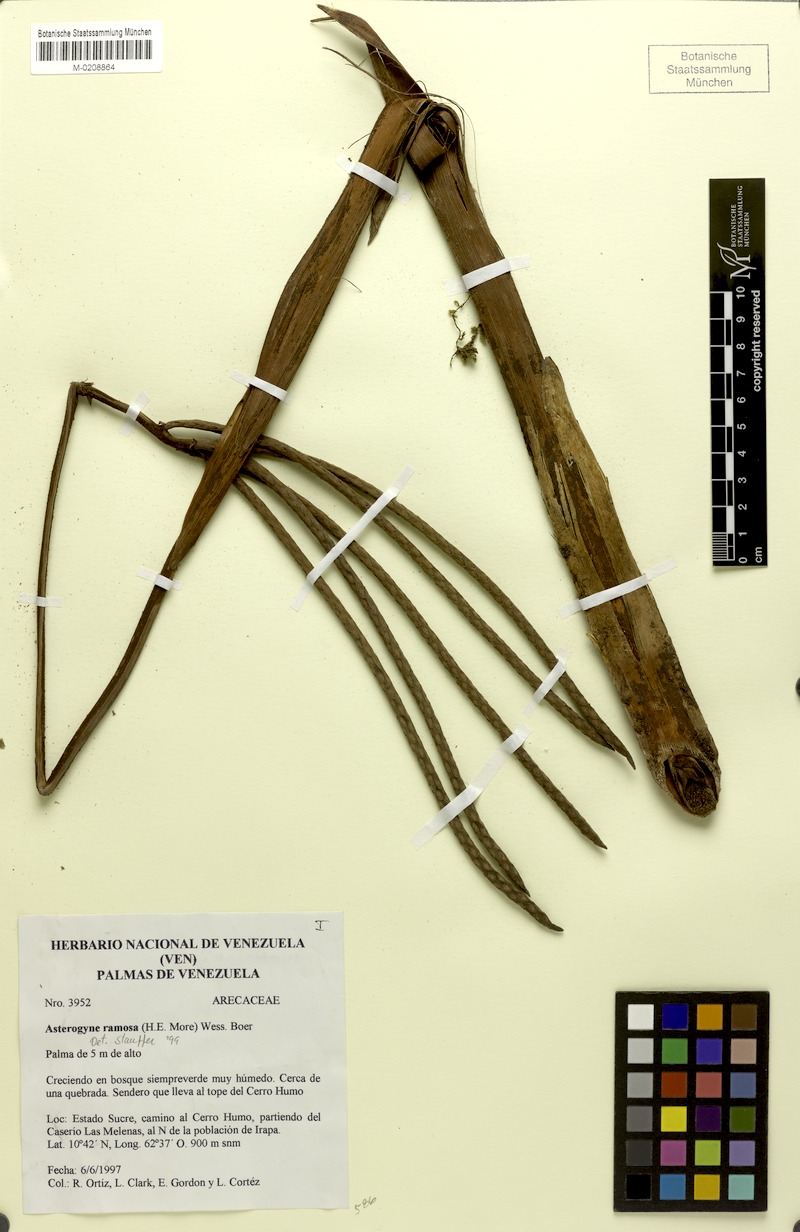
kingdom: Plantae
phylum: Tracheophyta
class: Liliopsida
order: Arecales
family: Arecaceae
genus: Asterogyne
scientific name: Asterogyne ramosa
